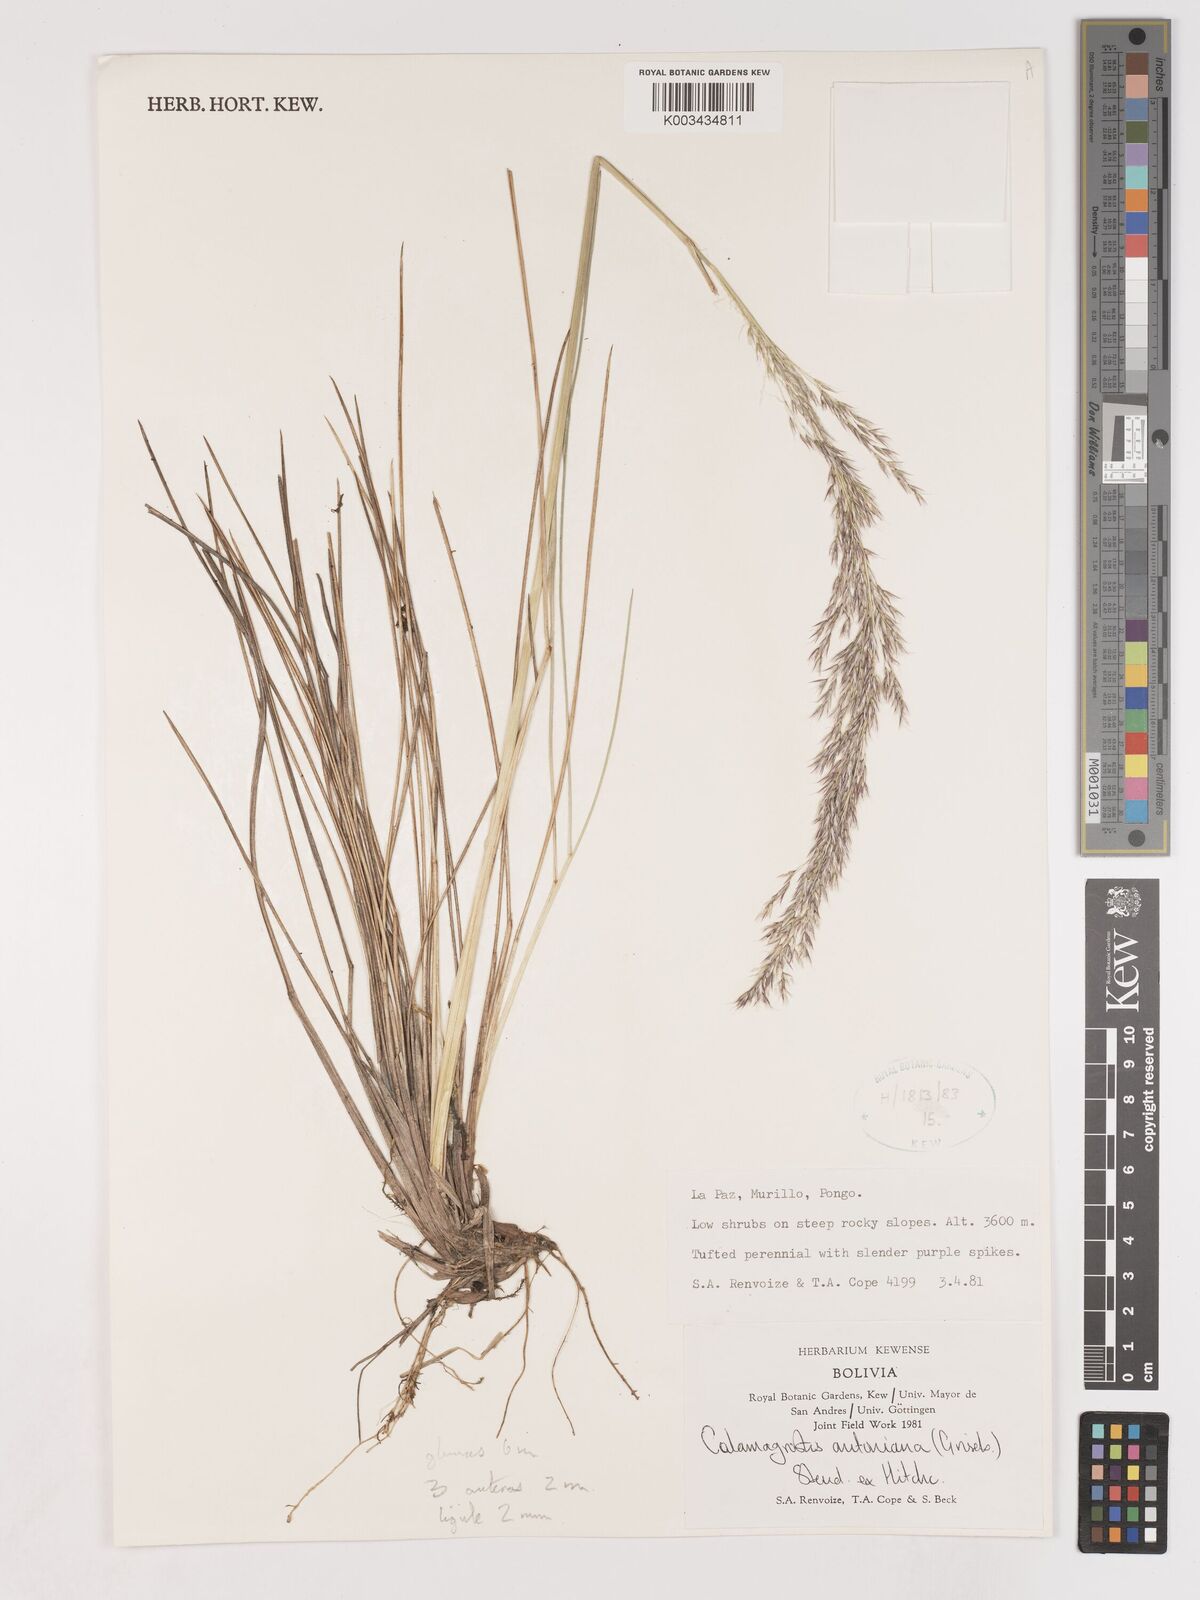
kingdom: Plantae
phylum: Tracheophyta
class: Liliopsida
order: Poales
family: Poaceae
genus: Cinnagrostis
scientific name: Cinnagrostis orbignyana
